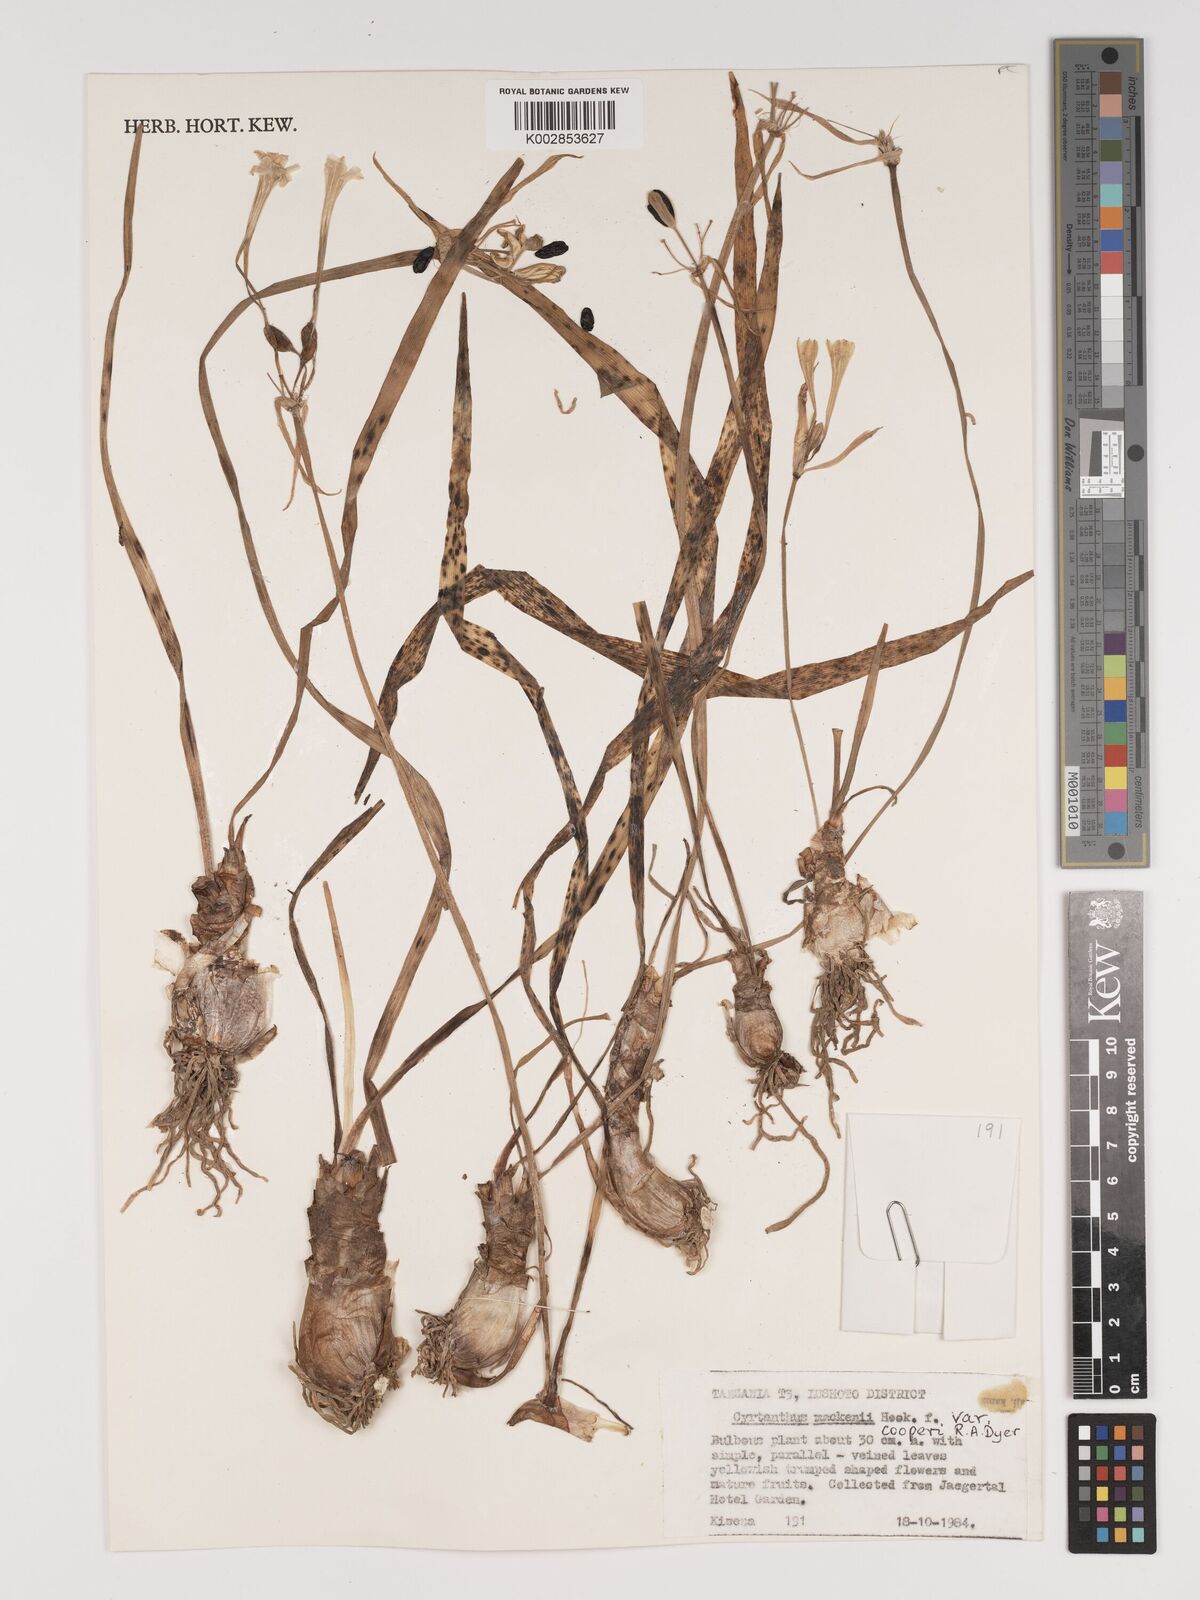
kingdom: Plantae
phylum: Tracheophyta
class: Liliopsida
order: Asparagales
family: Amaryllidaceae
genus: Cyrtanthus
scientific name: Cyrtanthus mackenii
